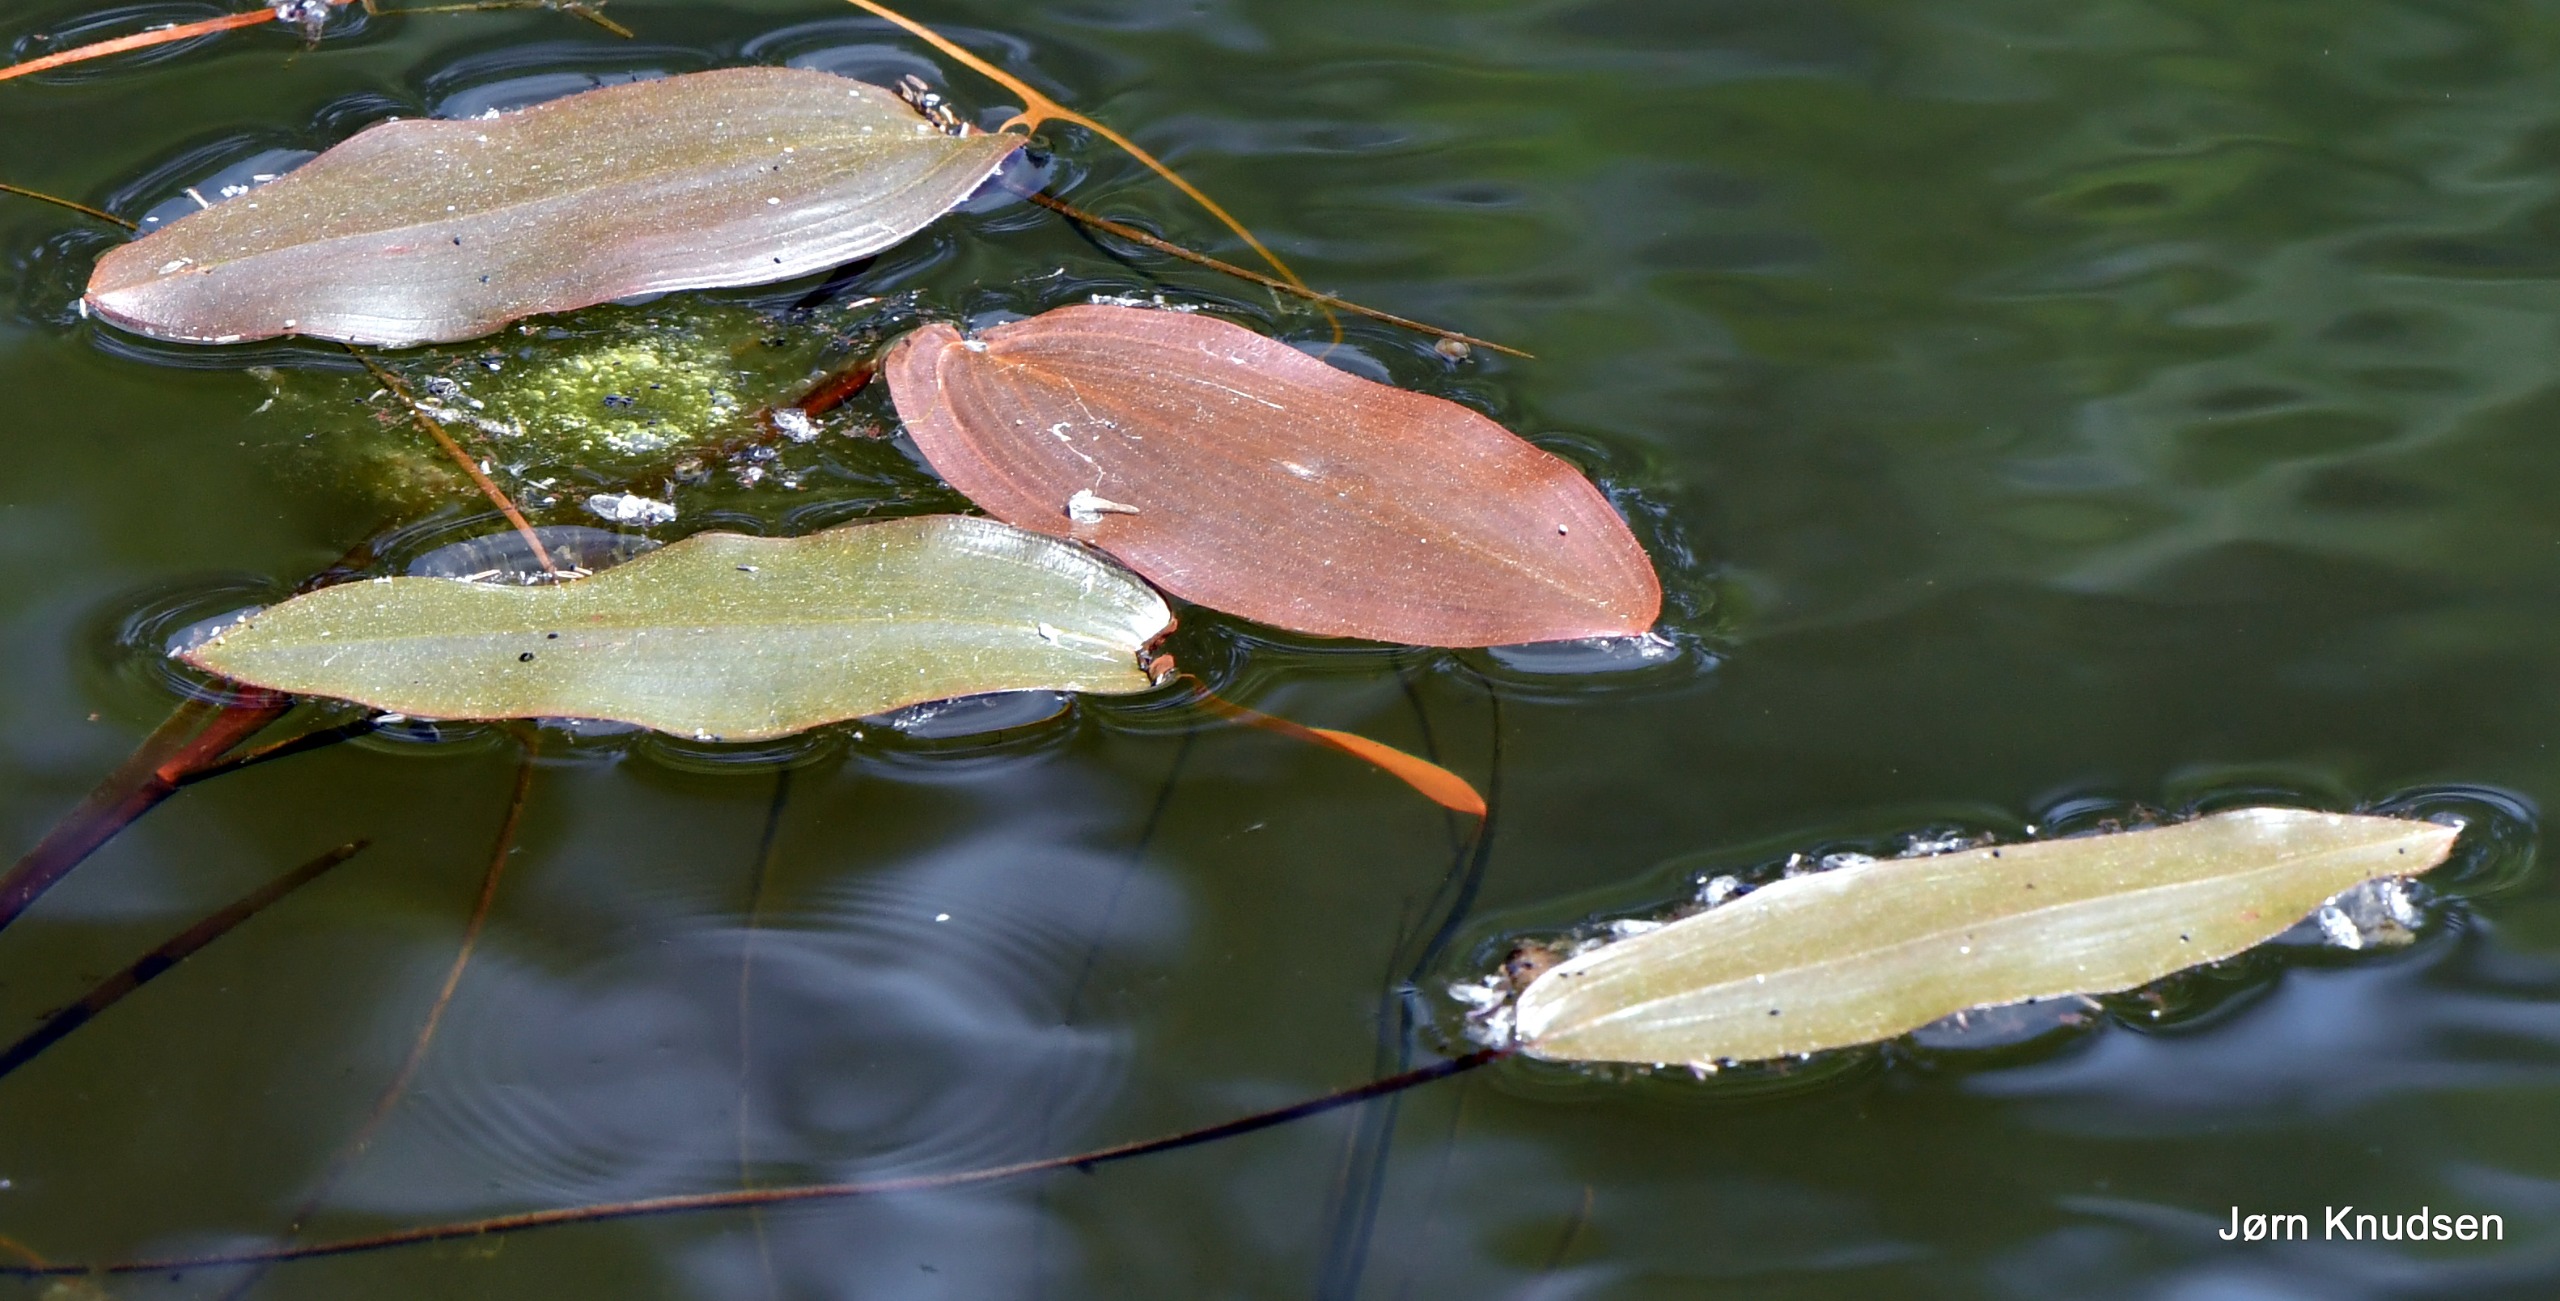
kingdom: Plantae
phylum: Tracheophyta
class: Liliopsida
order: Alismatales
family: Potamogetonaceae
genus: Potamogeton
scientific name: Potamogeton natans
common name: Svømmende vandaks
